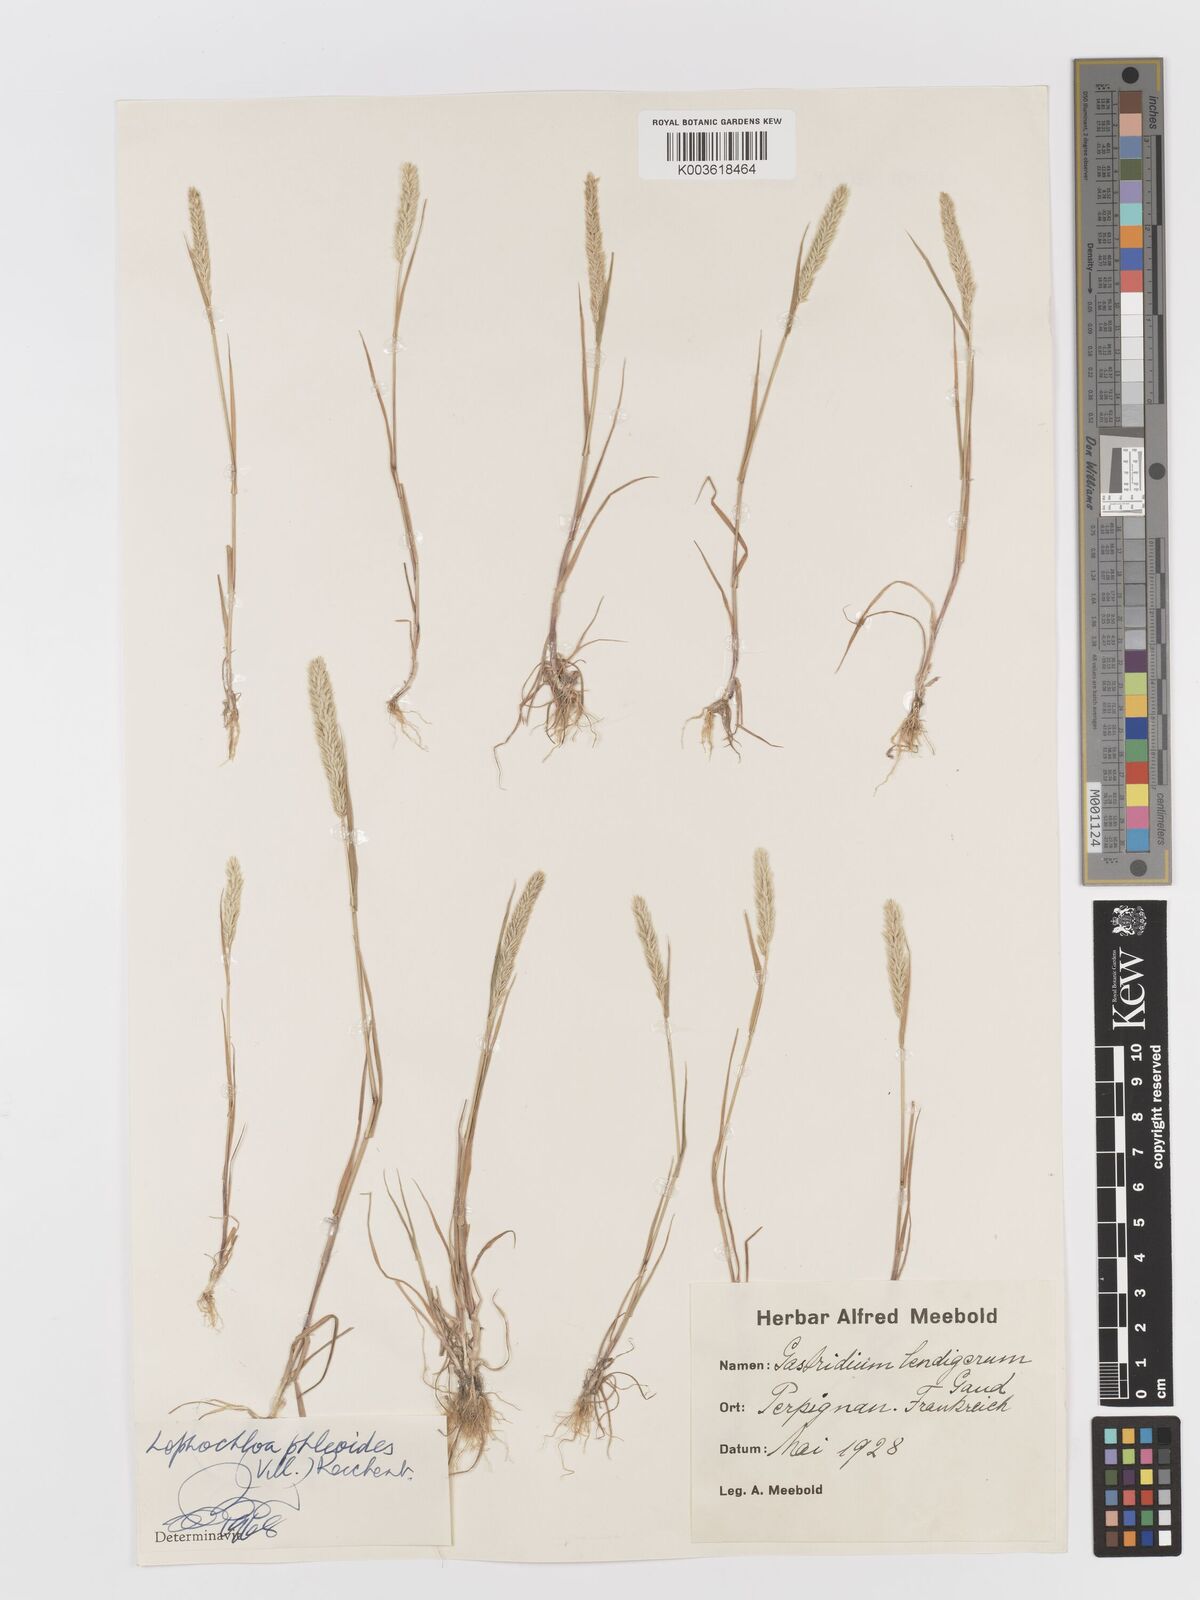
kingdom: Plantae
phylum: Tracheophyta
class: Liliopsida
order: Poales
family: Poaceae
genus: Rostraria
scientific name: Rostraria cristata
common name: Mediterranean hair-grass
